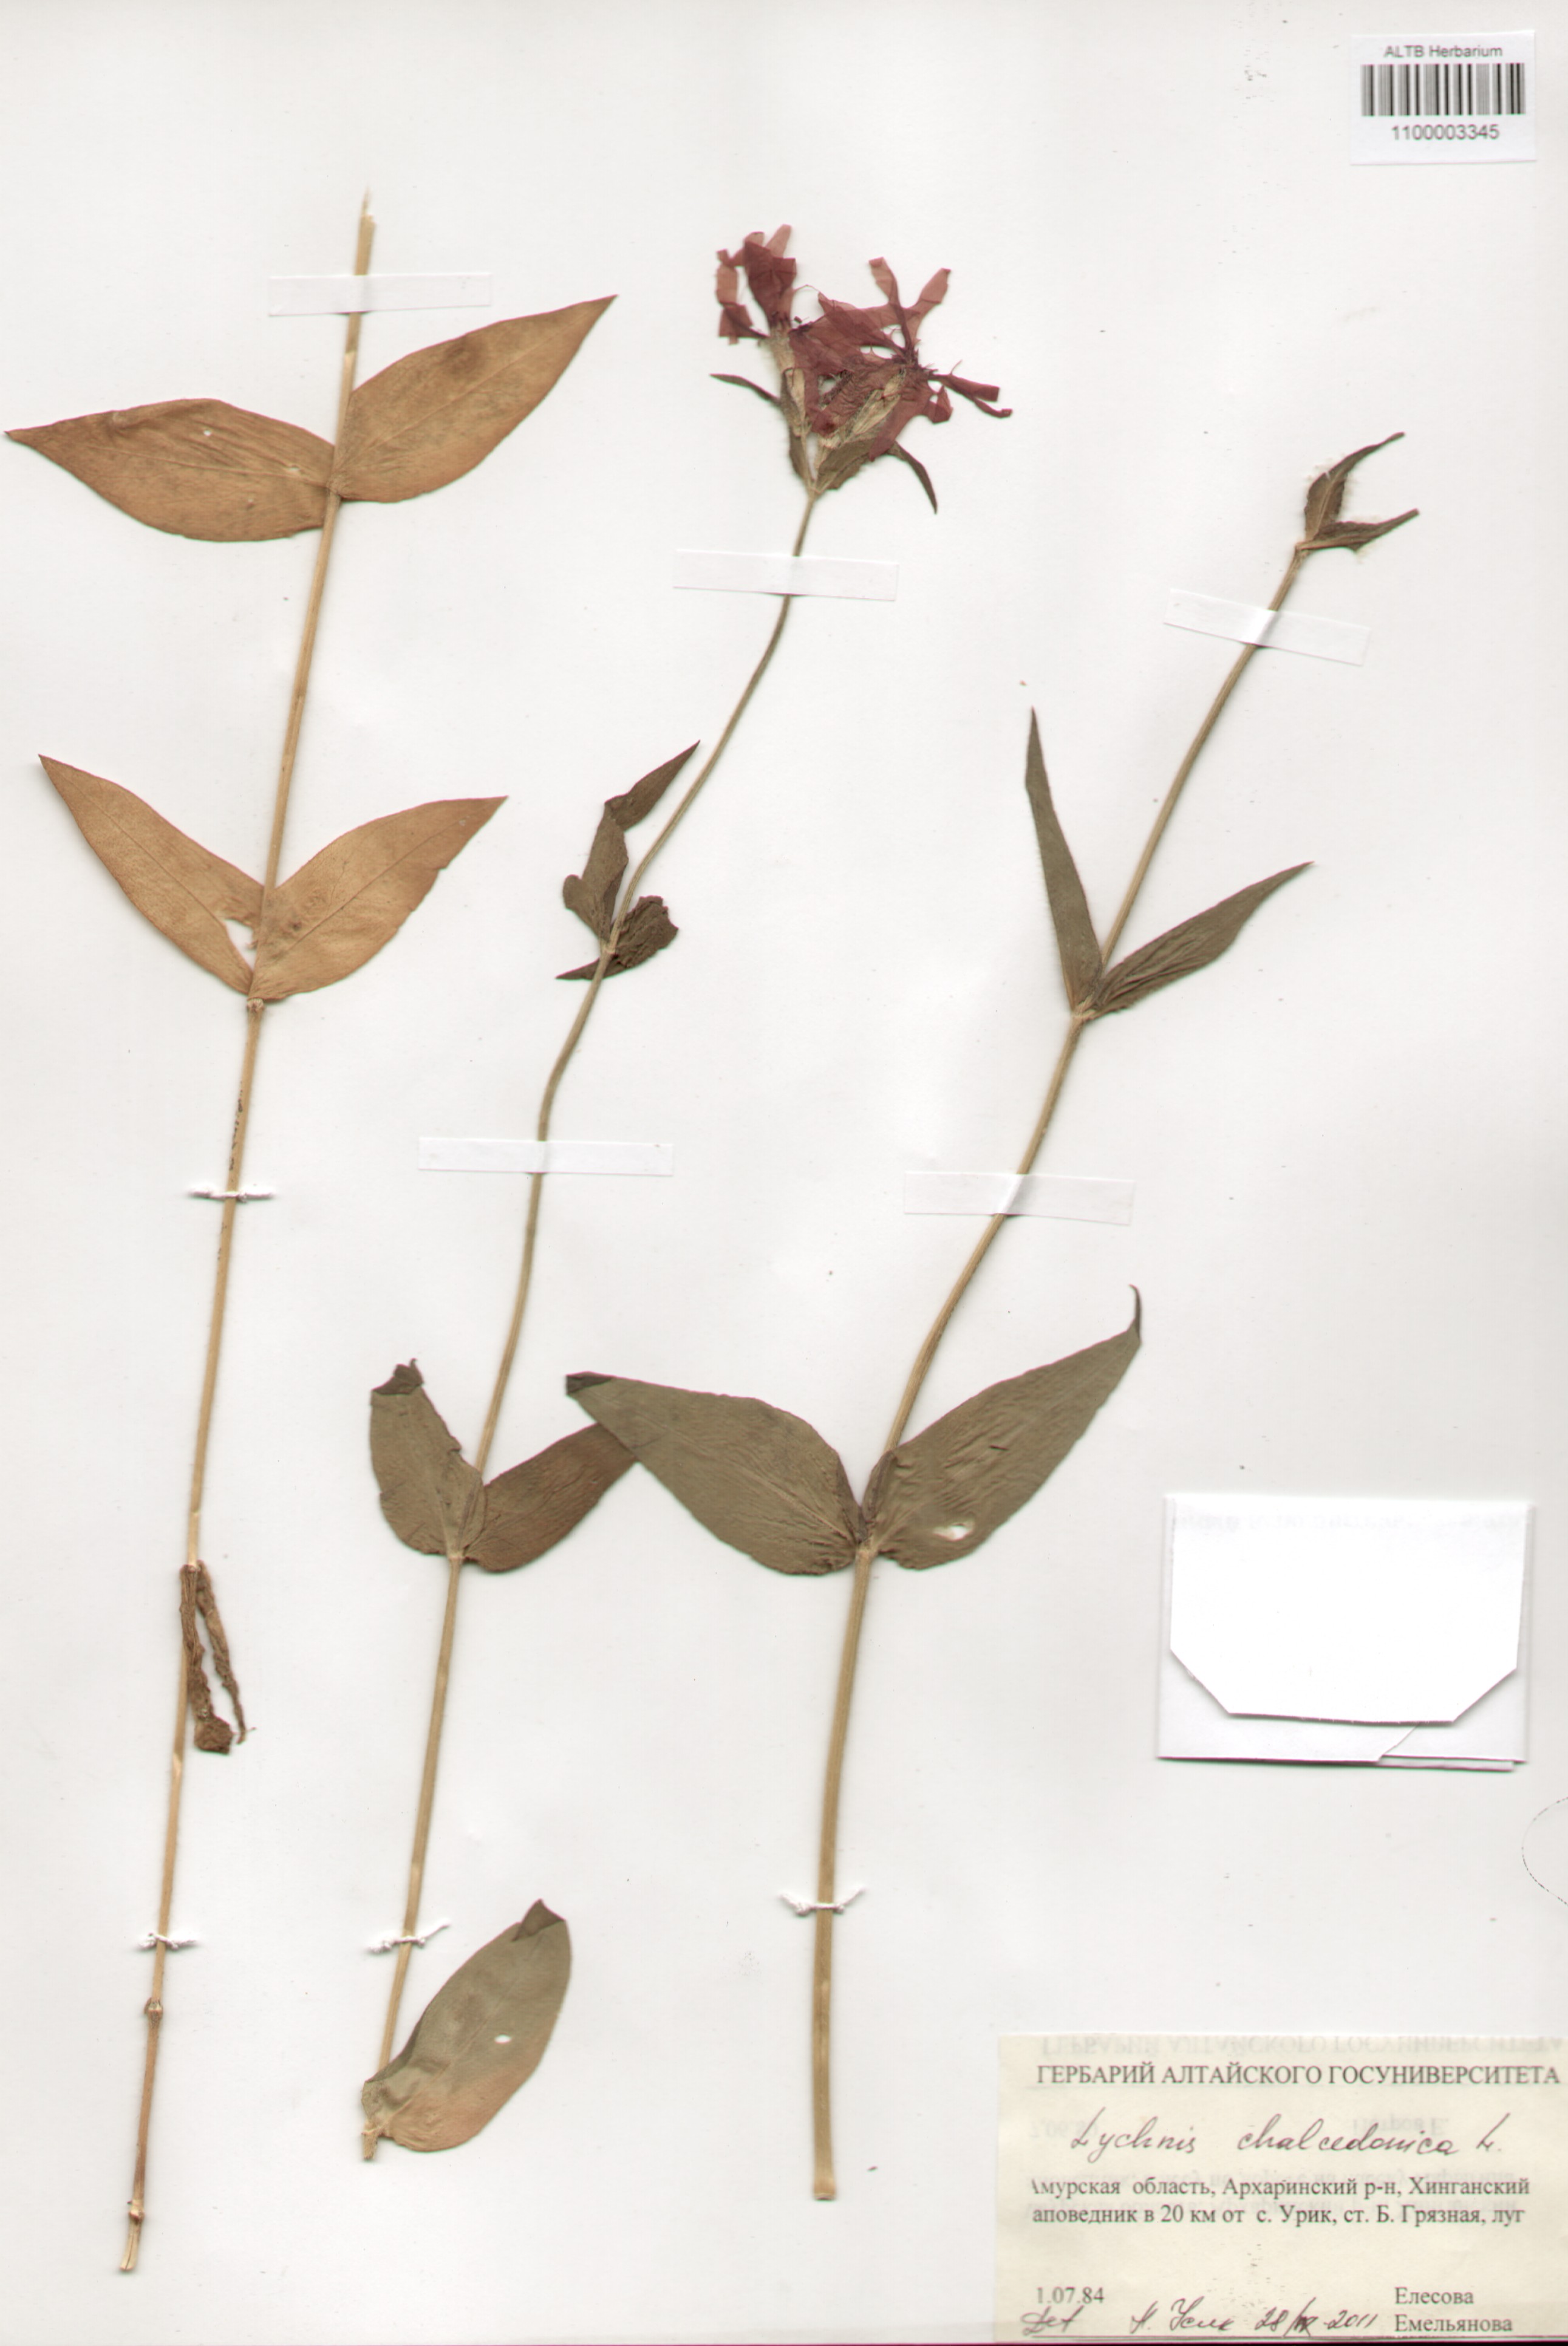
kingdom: Plantae
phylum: Tracheophyta
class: Magnoliopsida
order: Caryophyllales
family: Caryophyllaceae
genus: Silene
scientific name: Silene chalcedonica
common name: Maltese-cross
